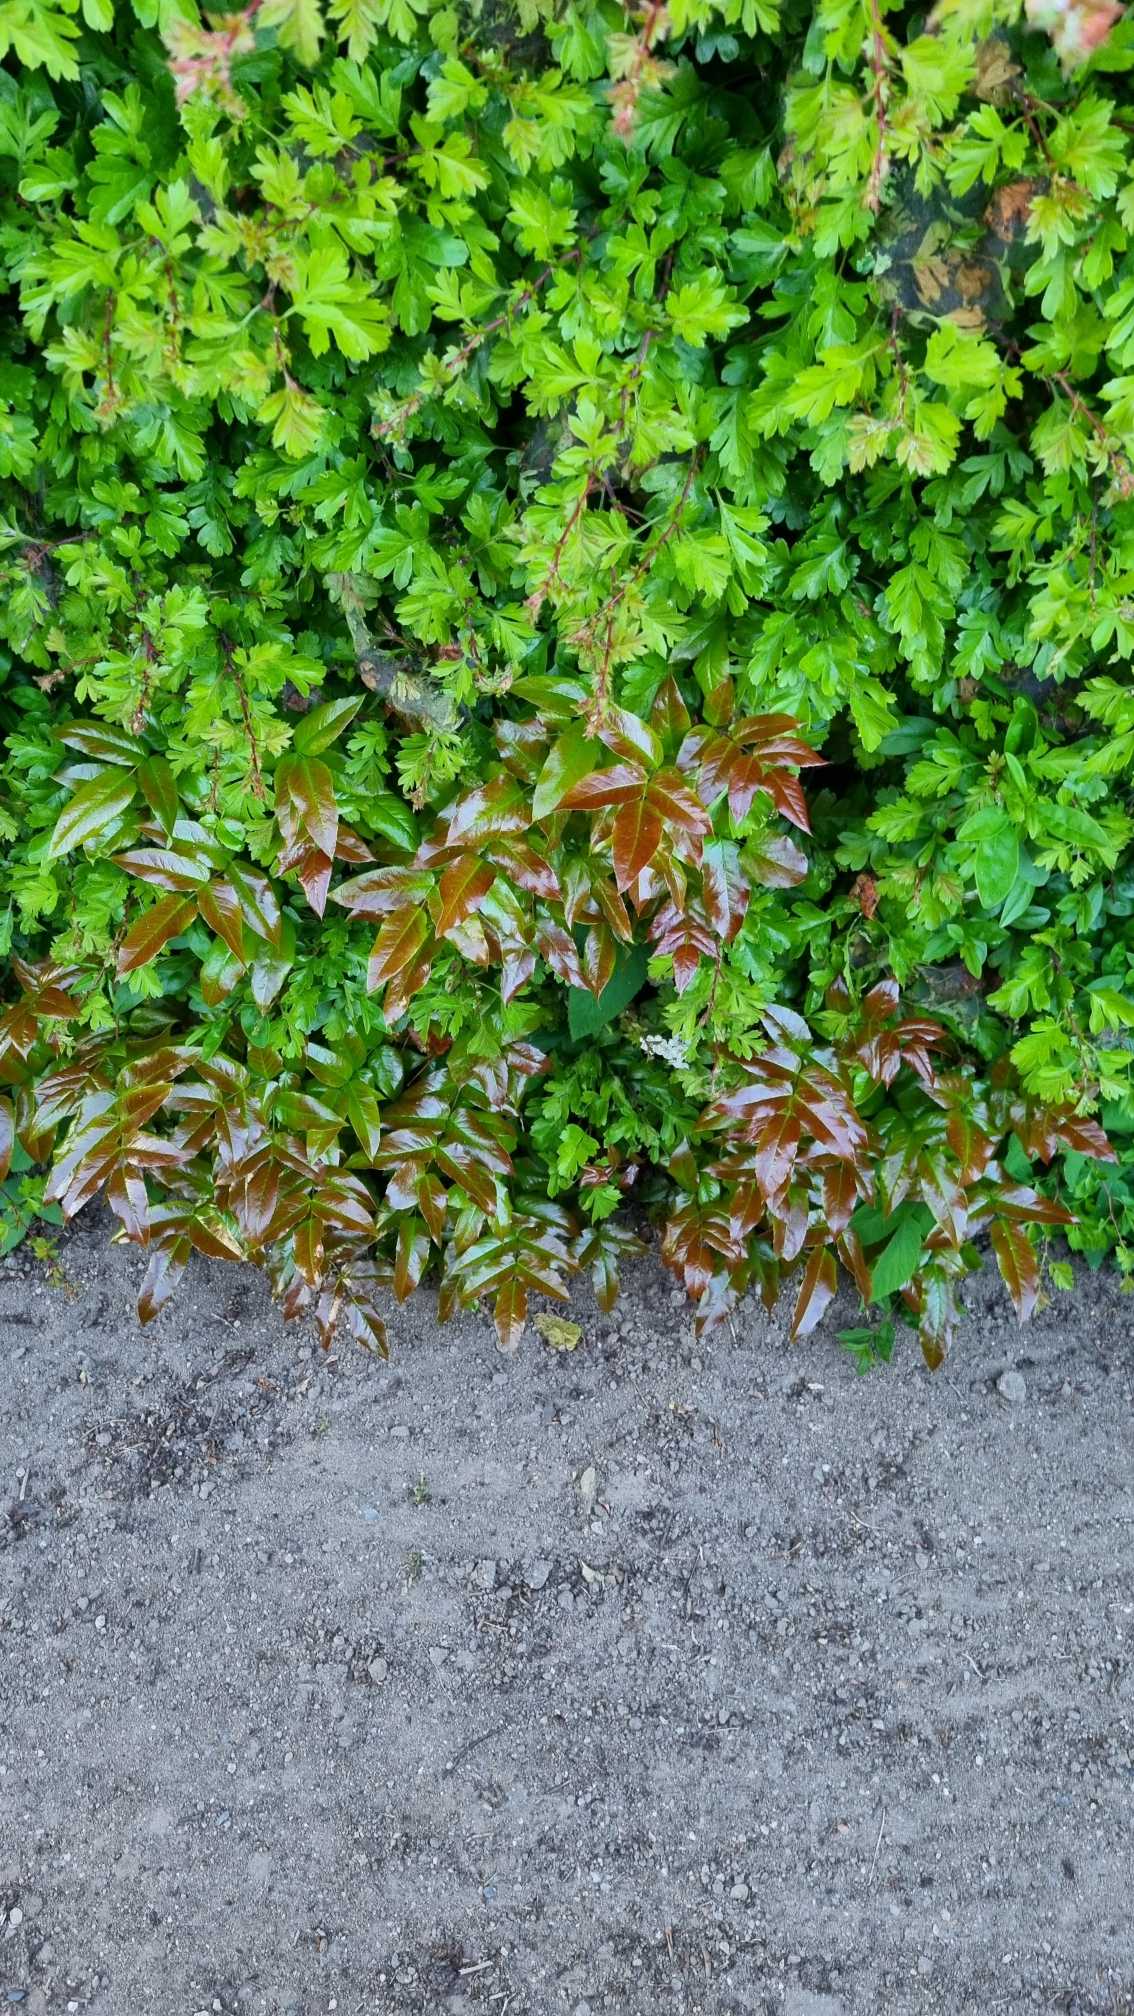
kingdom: Plantae
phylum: Tracheophyta
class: Magnoliopsida
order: Ranunculales
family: Berberidaceae
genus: Mahonia
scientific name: Mahonia aquifolium
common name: Almindelig mahonie
